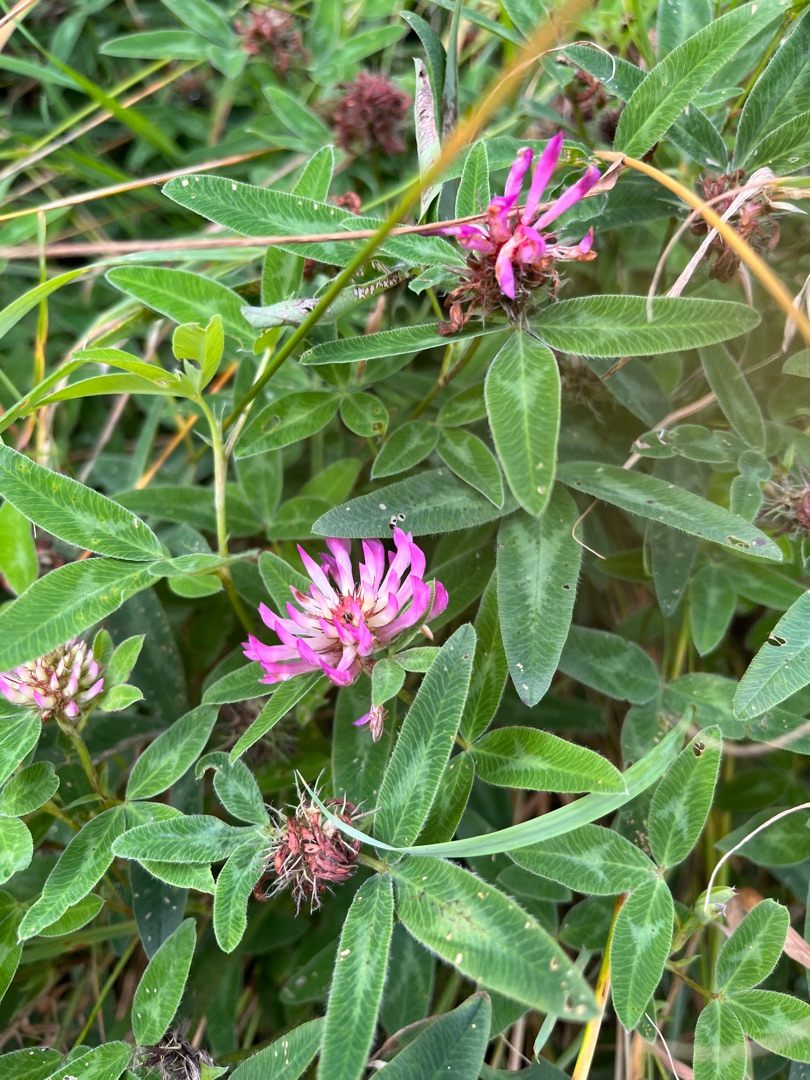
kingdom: Plantae
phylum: Tracheophyta
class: Magnoliopsida
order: Fabales
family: Fabaceae
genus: Trifolium
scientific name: Trifolium medium
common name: Bugtet kløver
